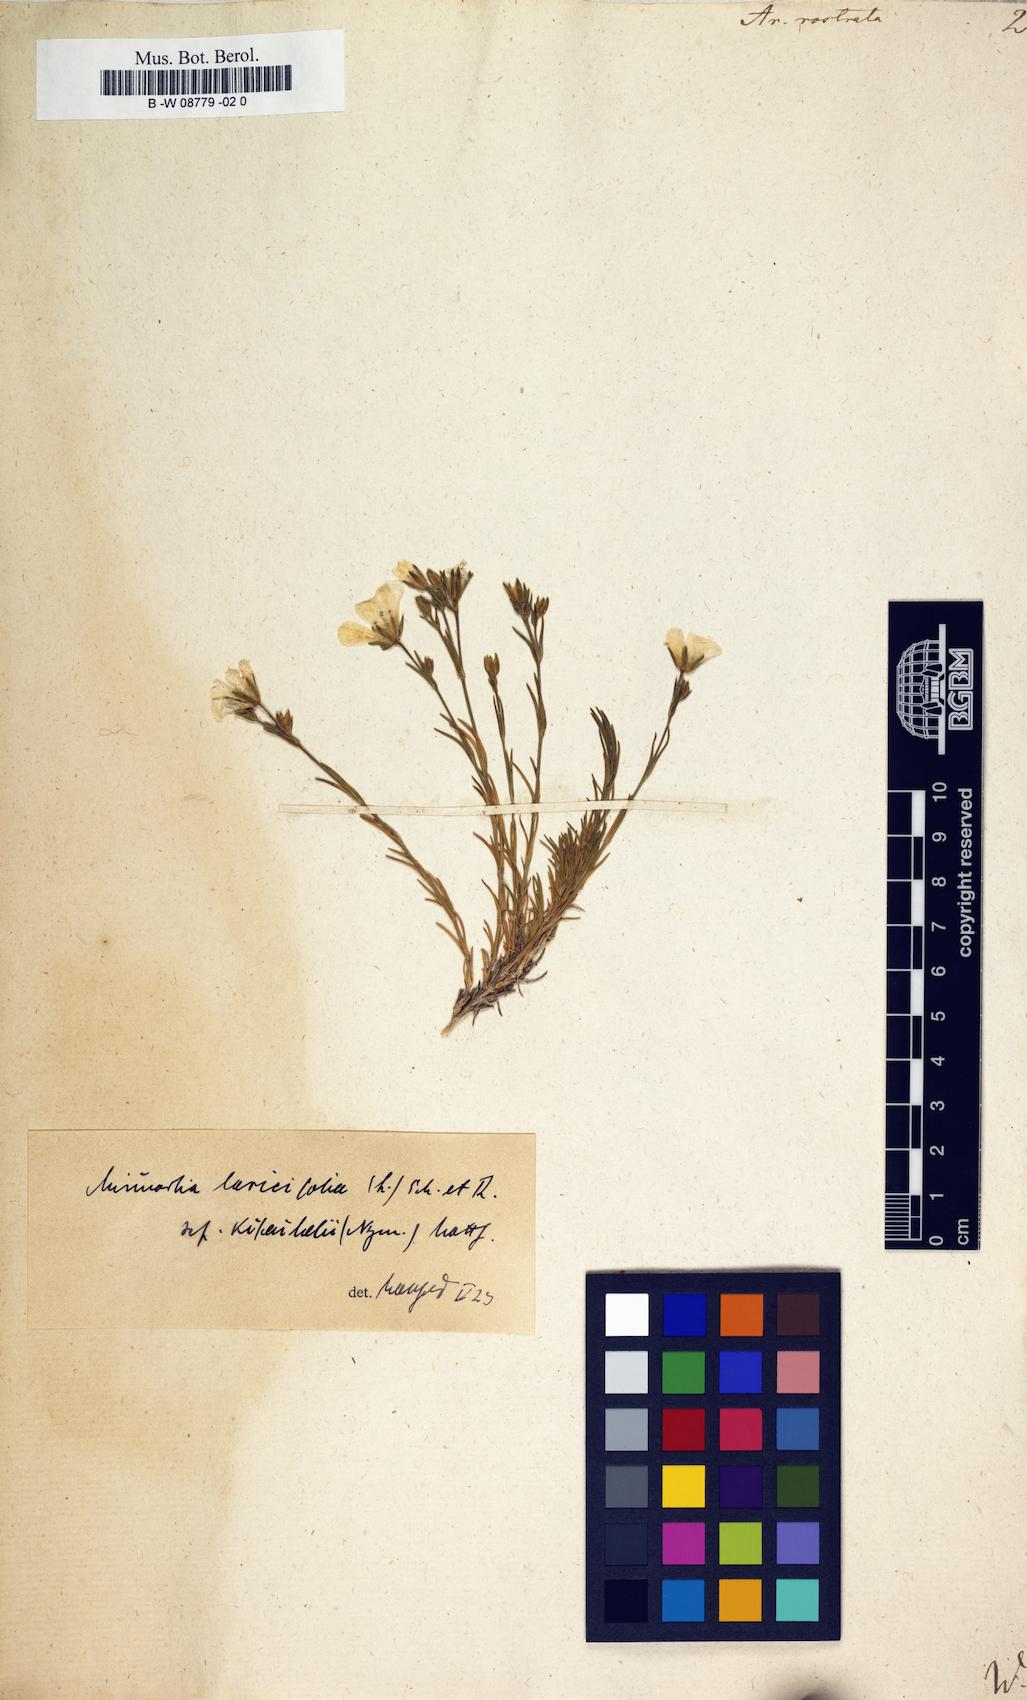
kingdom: Plantae
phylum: Tracheophyta
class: Magnoliopsida
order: Caryophyllales
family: Caryophyllaceae
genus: Cherleria
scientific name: Cherleria
